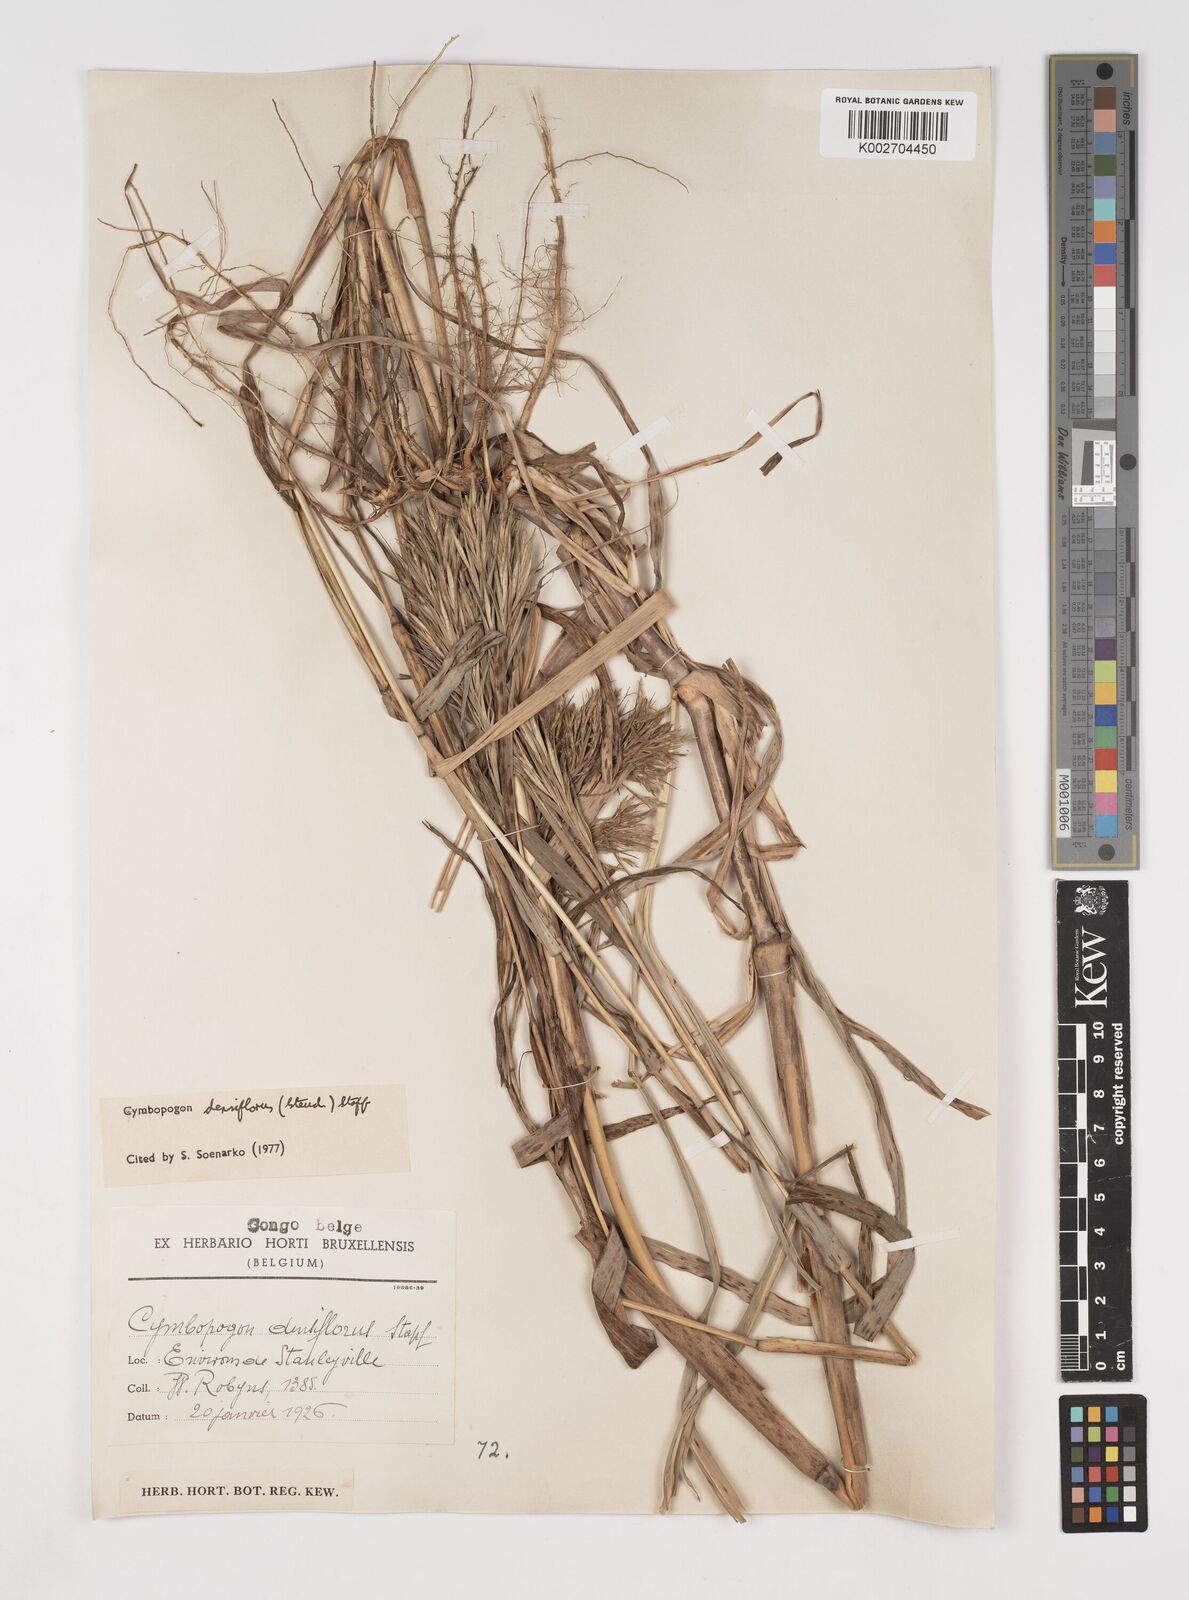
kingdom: Plantae
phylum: Tracheophyta
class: Liliopsida
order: Poales
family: Poaceae
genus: Cymbopogon
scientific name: Cymbopogon densiflorus
